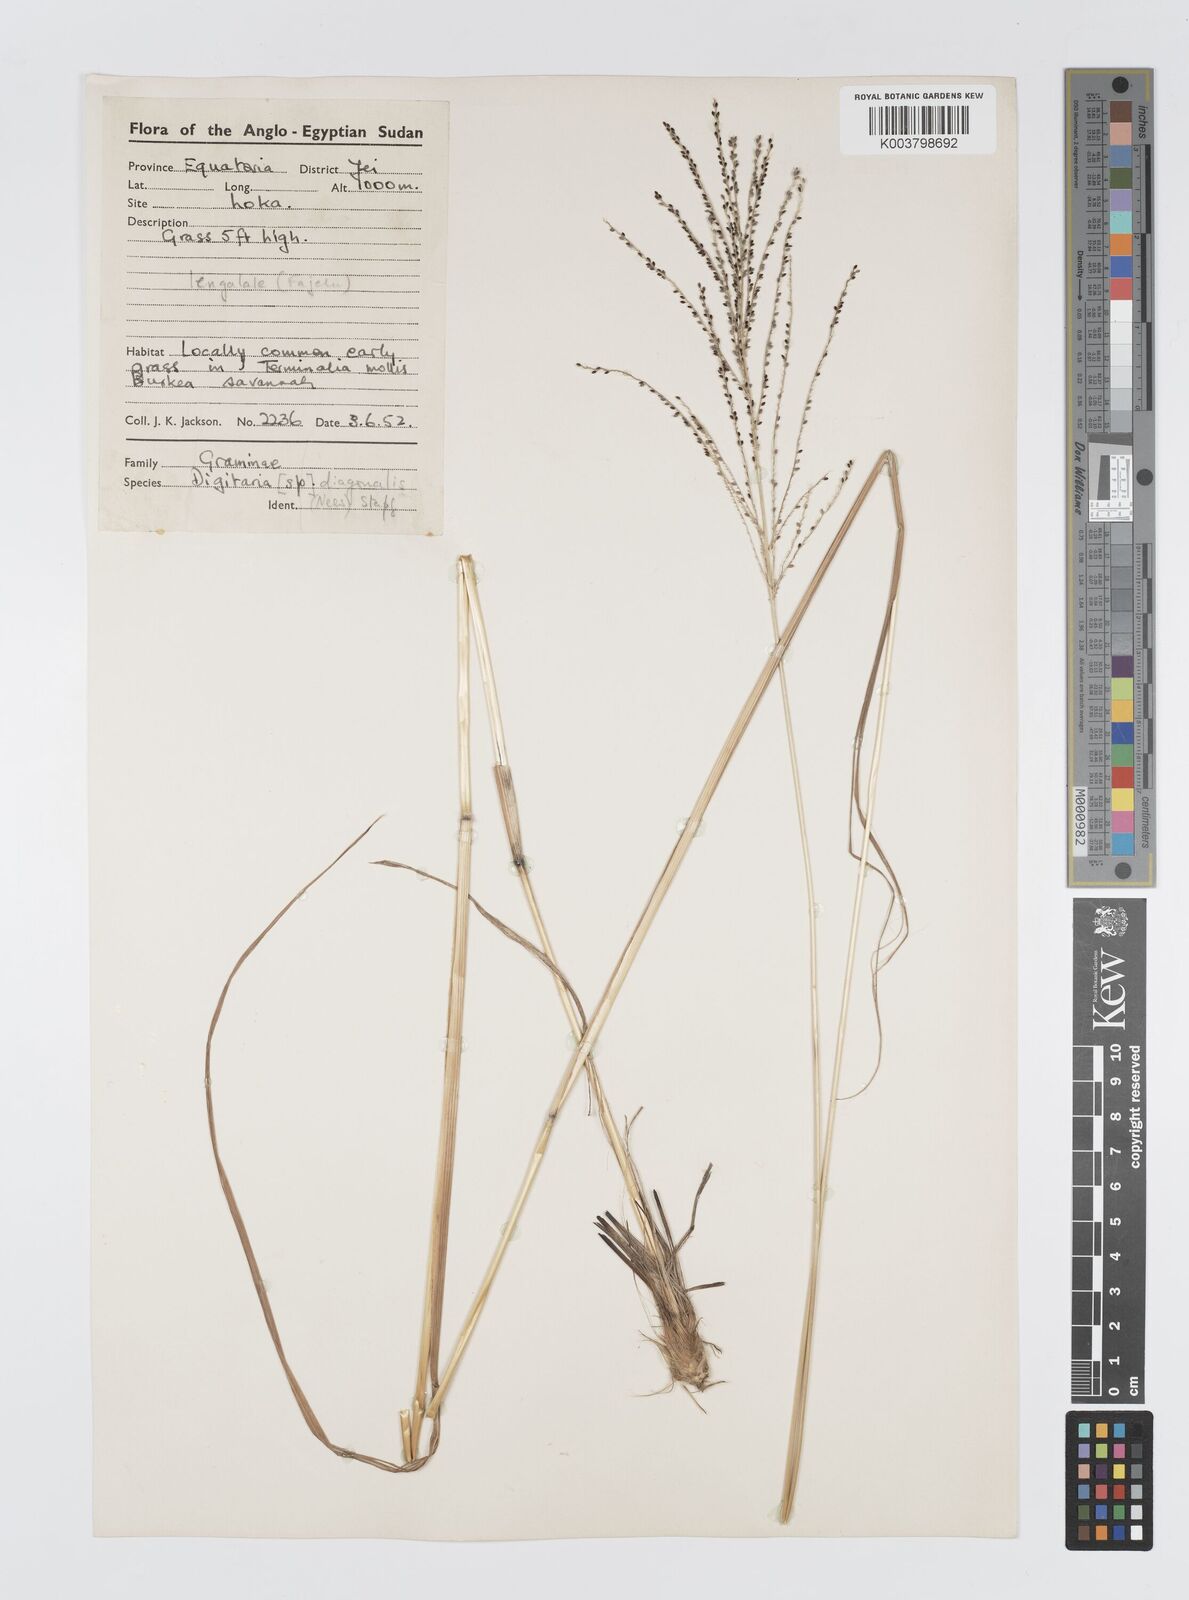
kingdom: Plantae
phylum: Tracheophyta
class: Liliopsida
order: Poales
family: Poaceae
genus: Digitaria
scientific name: Digitaria diagonalis
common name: Brown-seed finger grass
